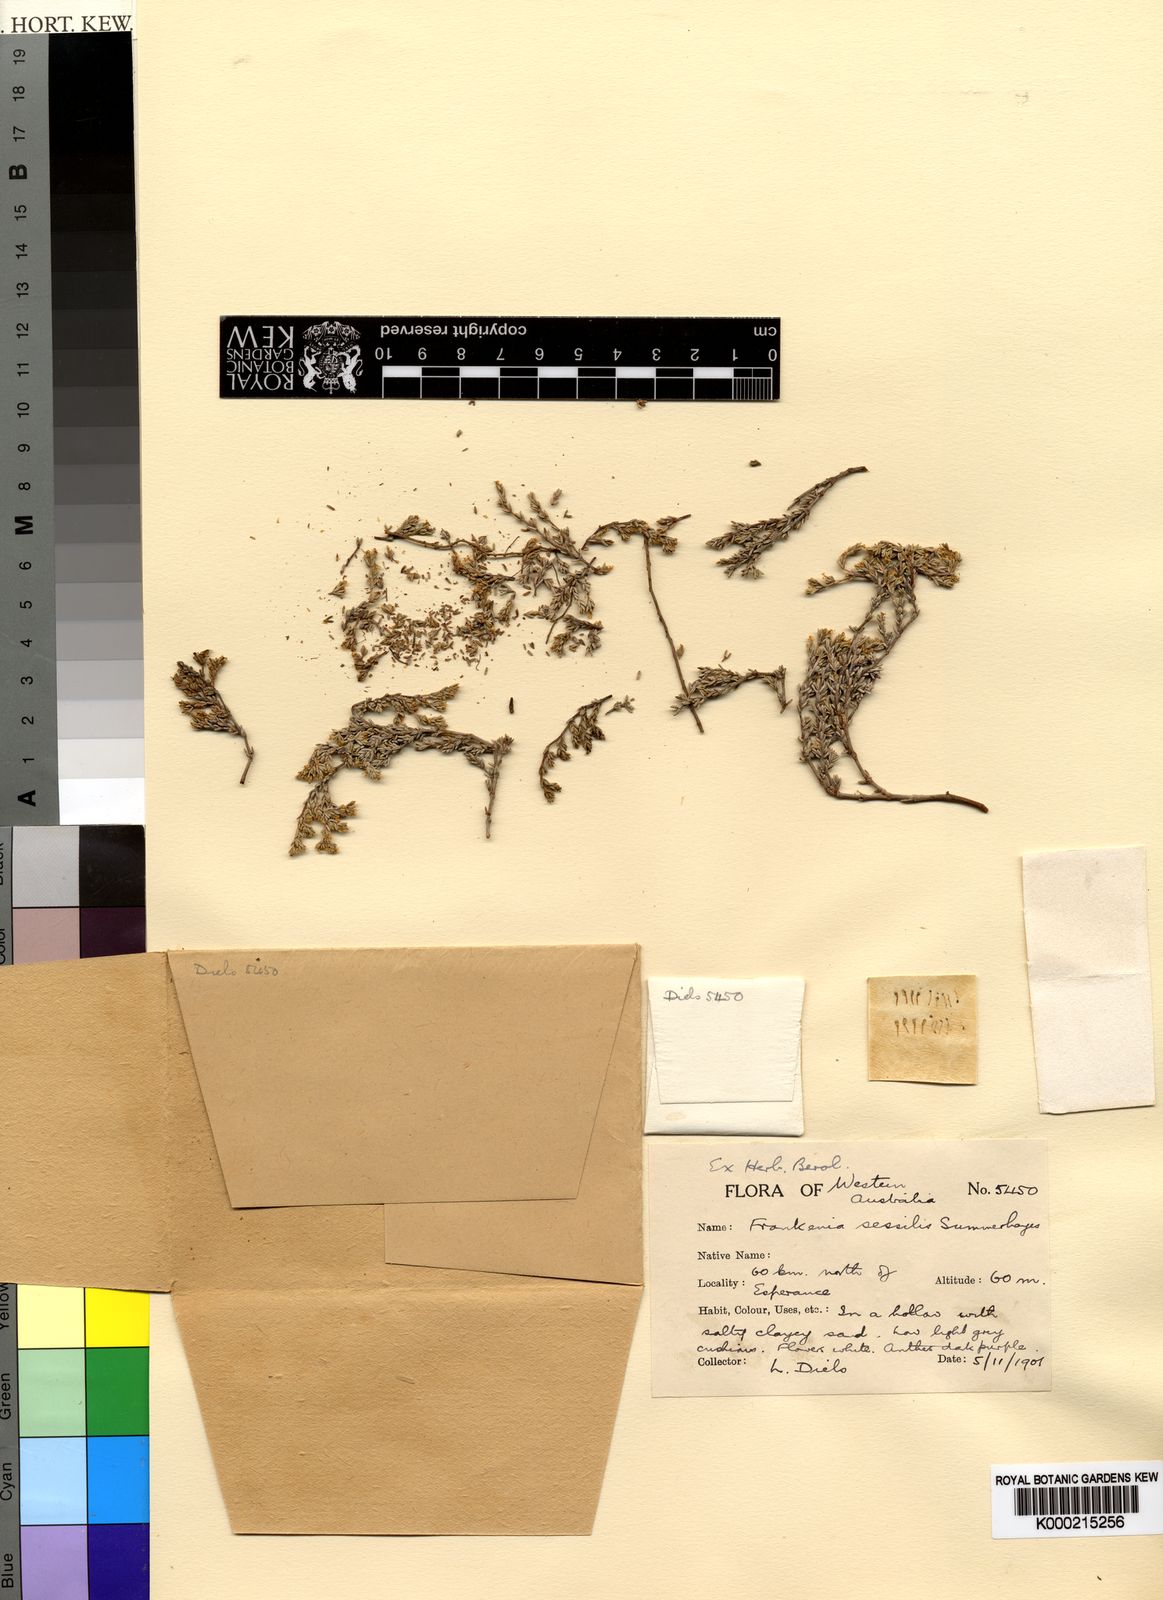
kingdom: Plantae
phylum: Tracheophyta
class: Magnoliopsida
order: Caryophyllales
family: Frankeniaceae
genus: Frankenia
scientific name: Frankenia sessilis
